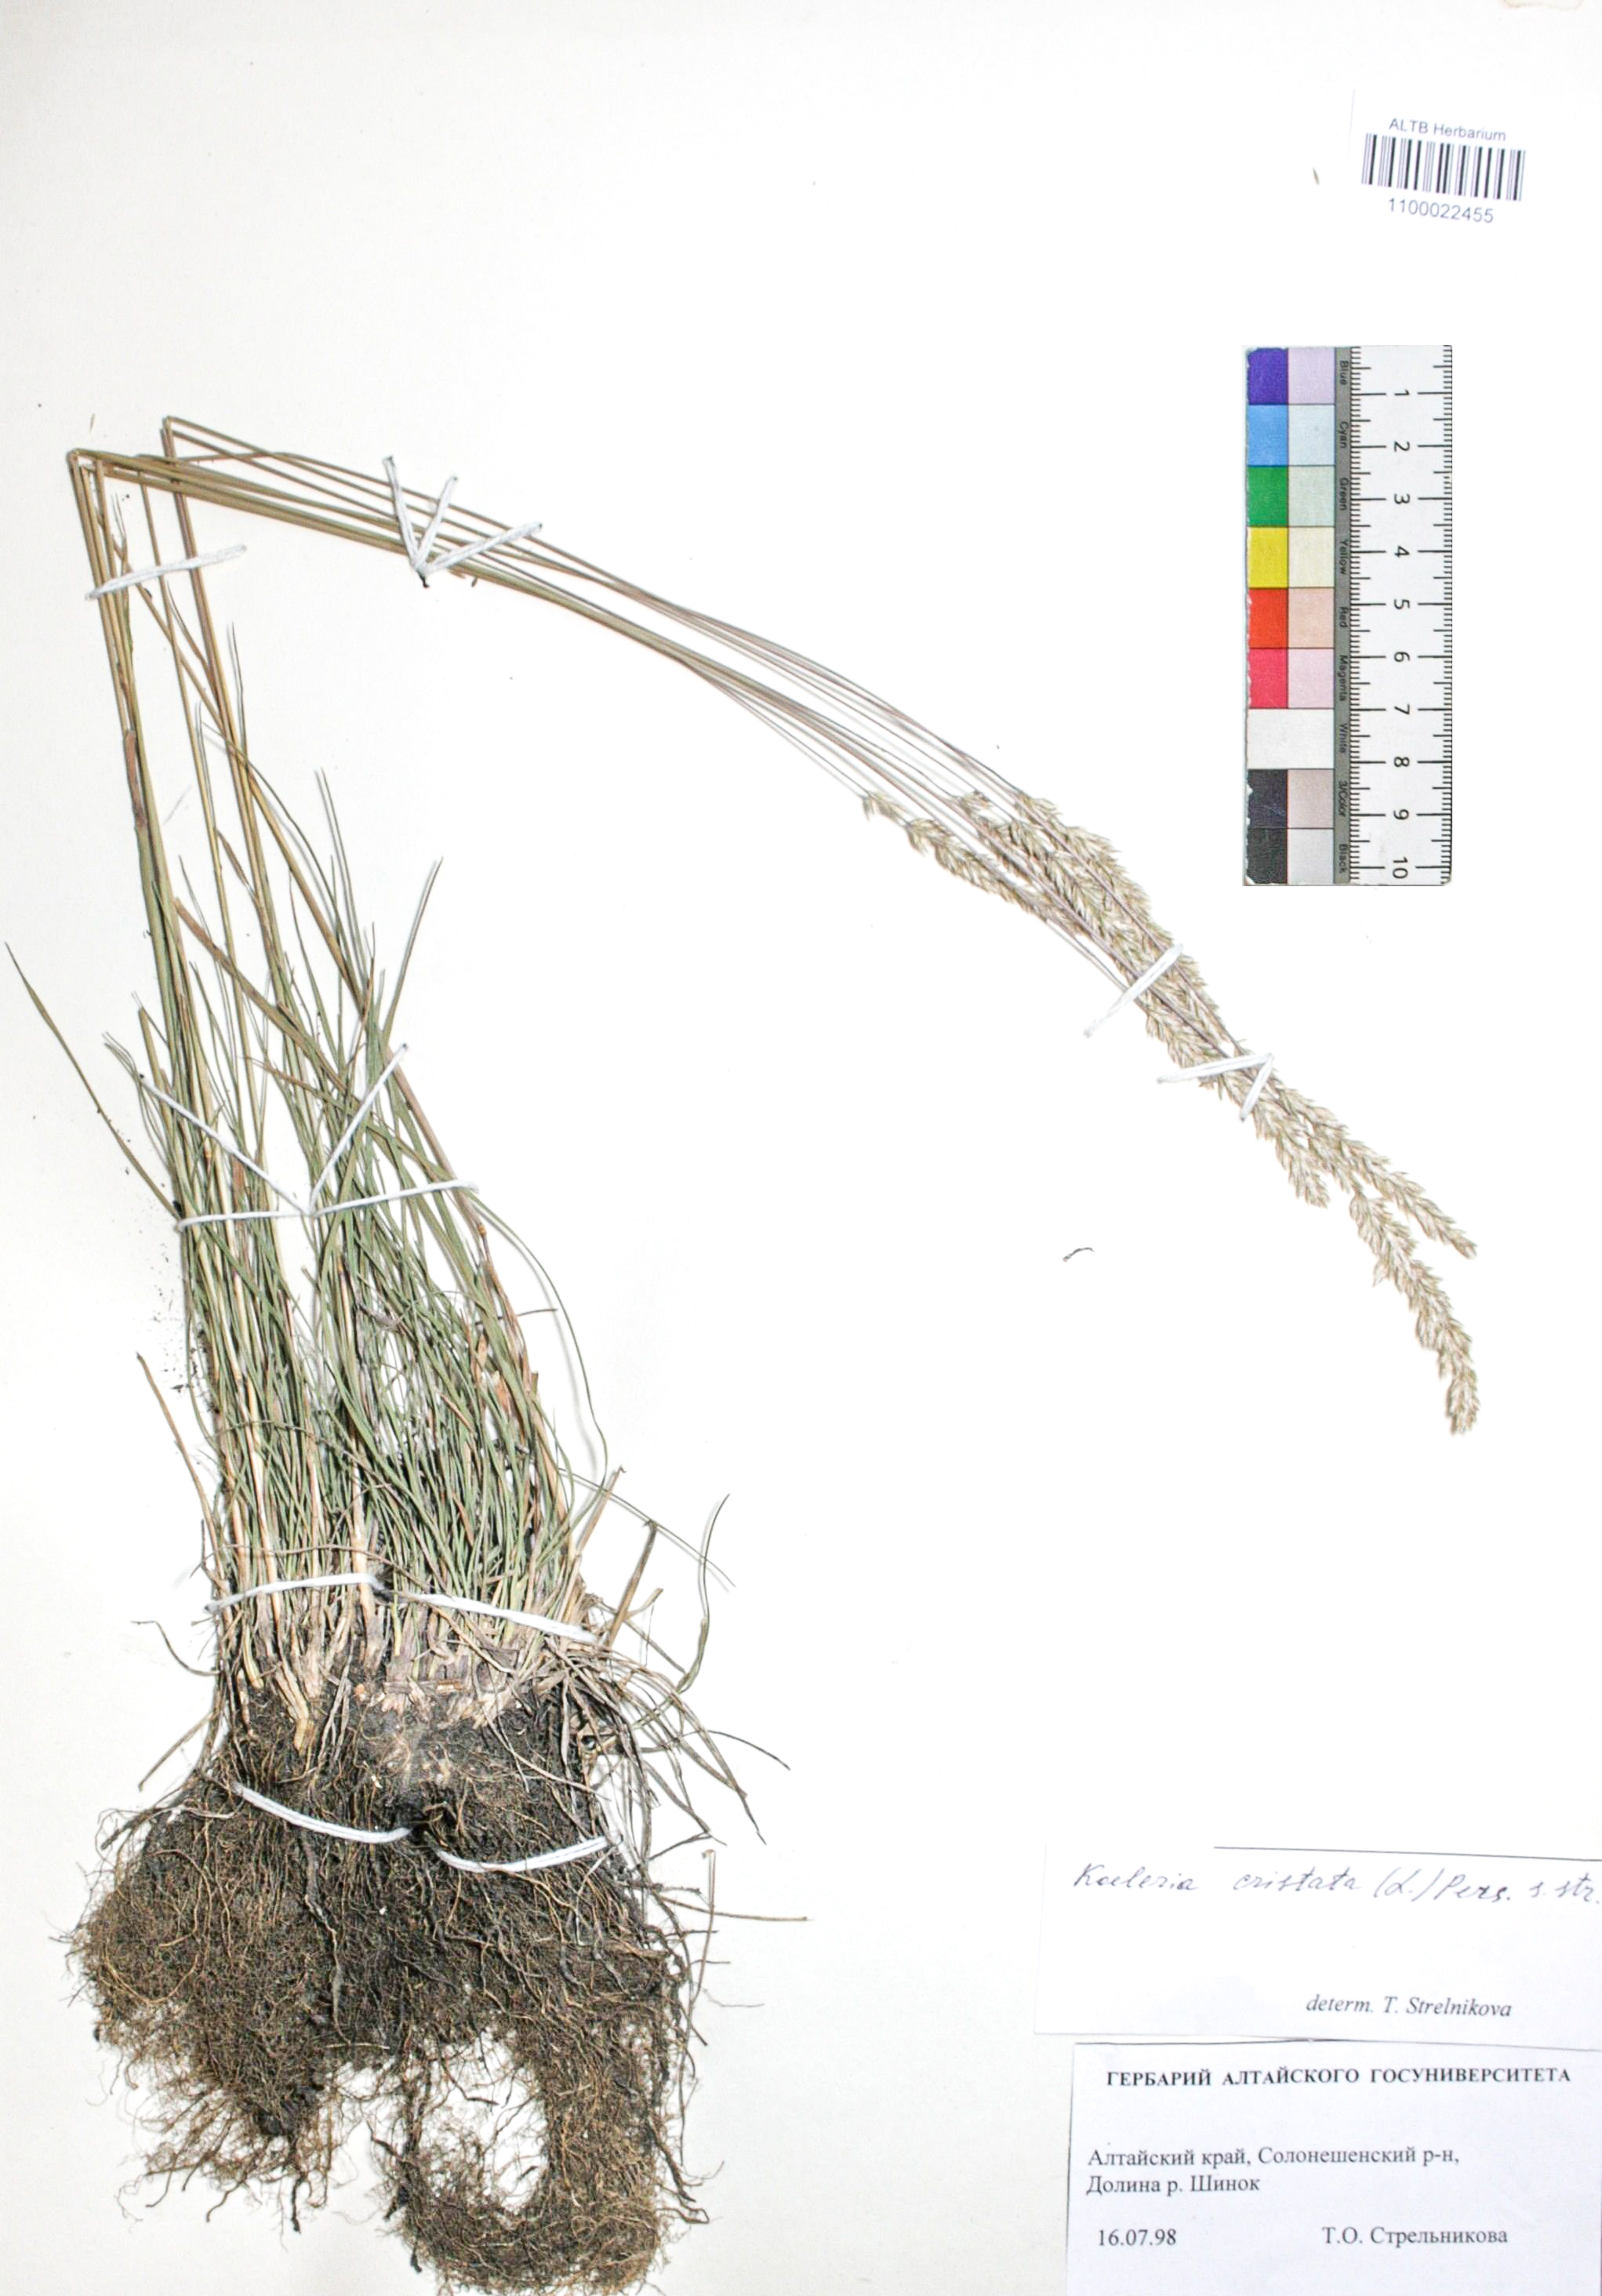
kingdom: Plantae
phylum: Tracheophyta
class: Liliopsida
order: Poales
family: Poaceae
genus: Koeleria
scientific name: Koeleria pyramidata
